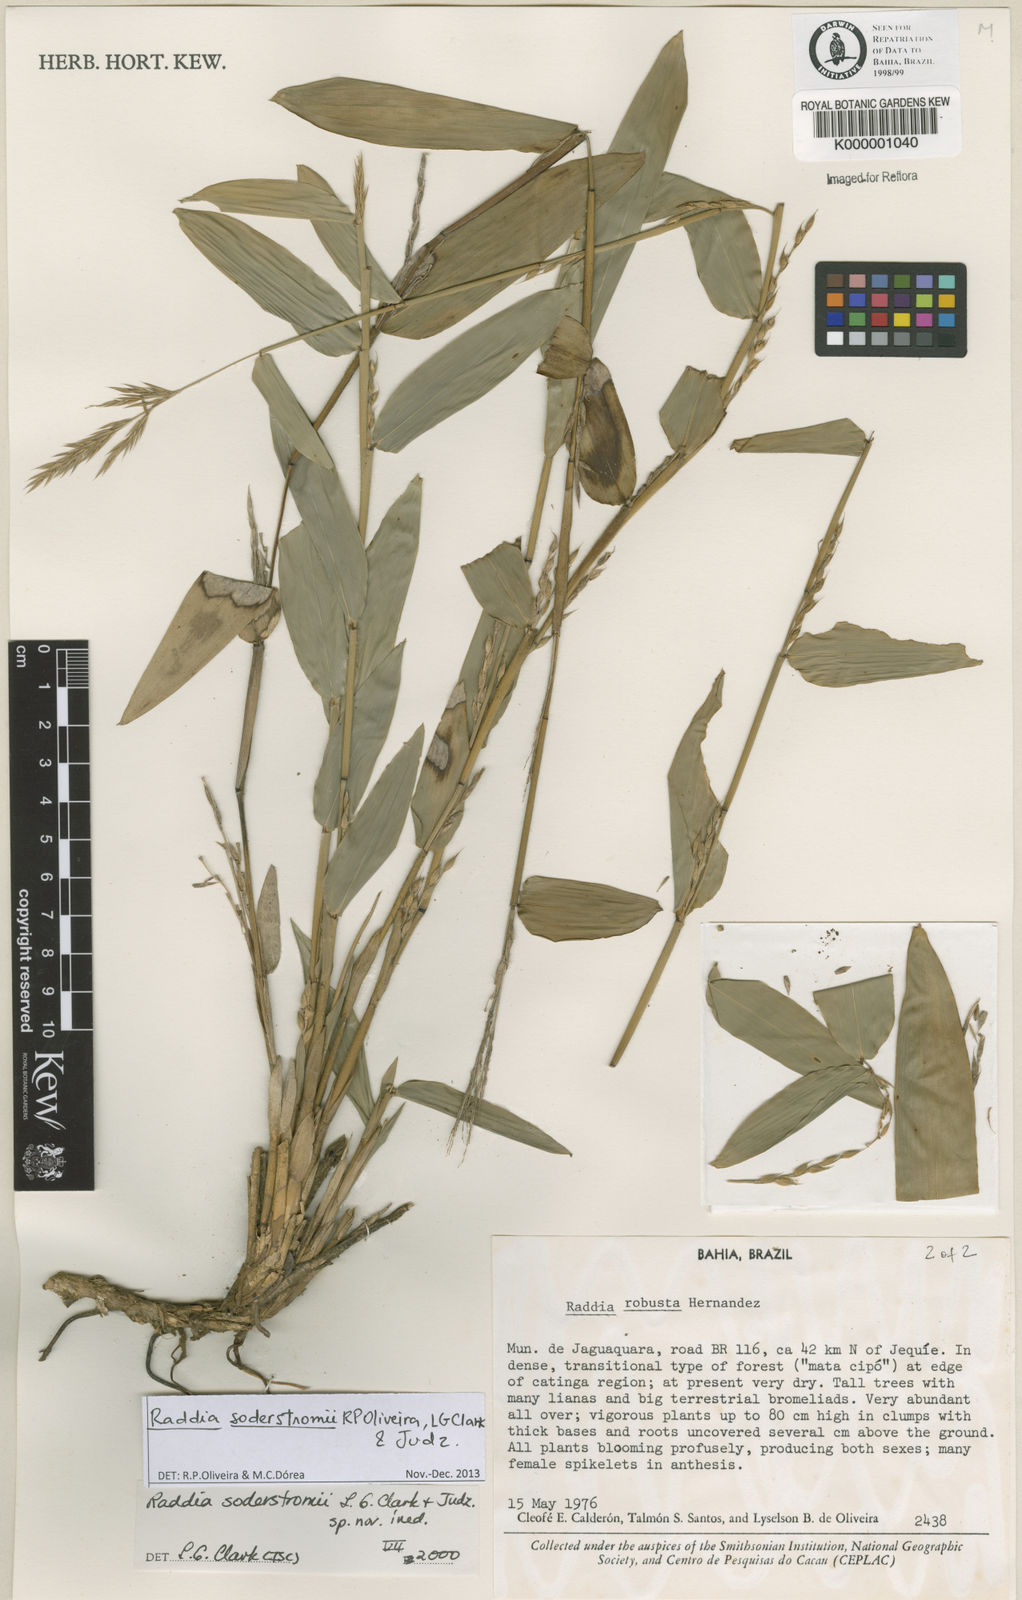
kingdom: Plantae
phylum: Tracheophyta
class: Liliopsida
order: Poales
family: Poaceae
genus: Raddia
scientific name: Raddia
